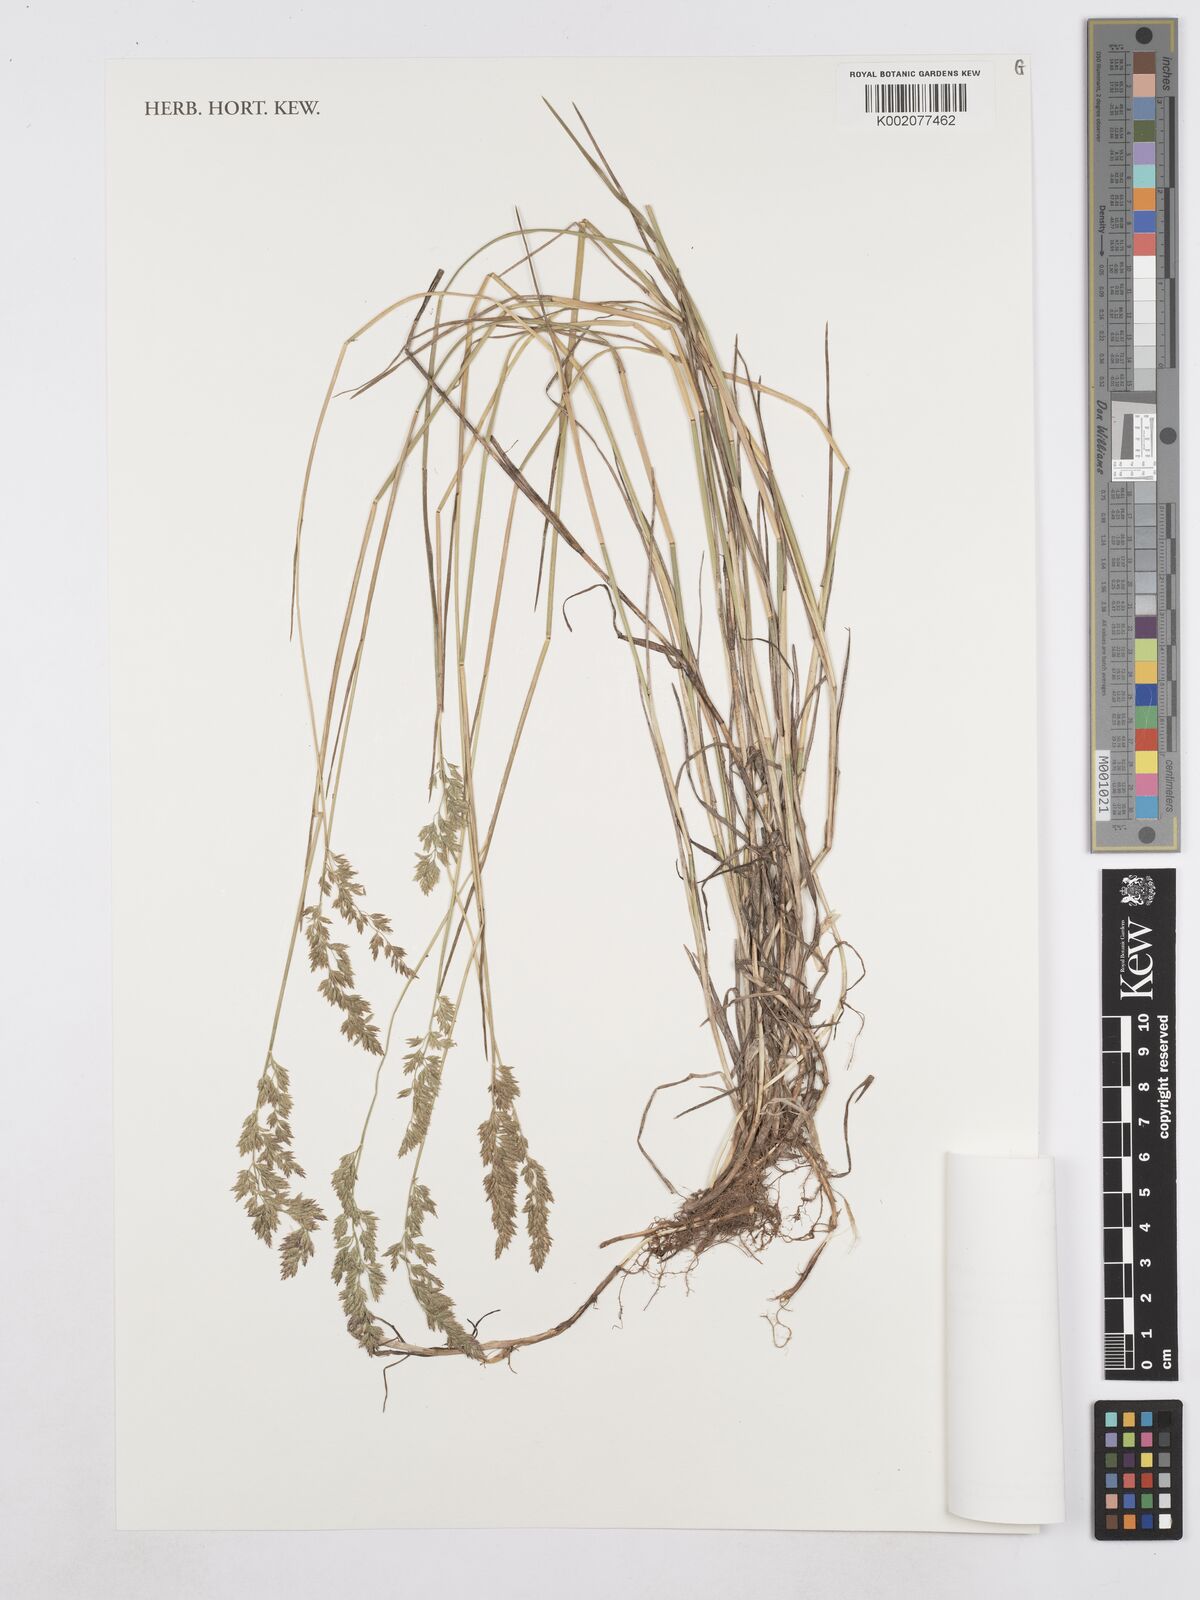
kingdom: Plantae
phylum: Tracheophyta
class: Liliopsida
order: Poales
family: Poaceae
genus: Poa
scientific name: Poa compressa
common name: Canada bluegrass
